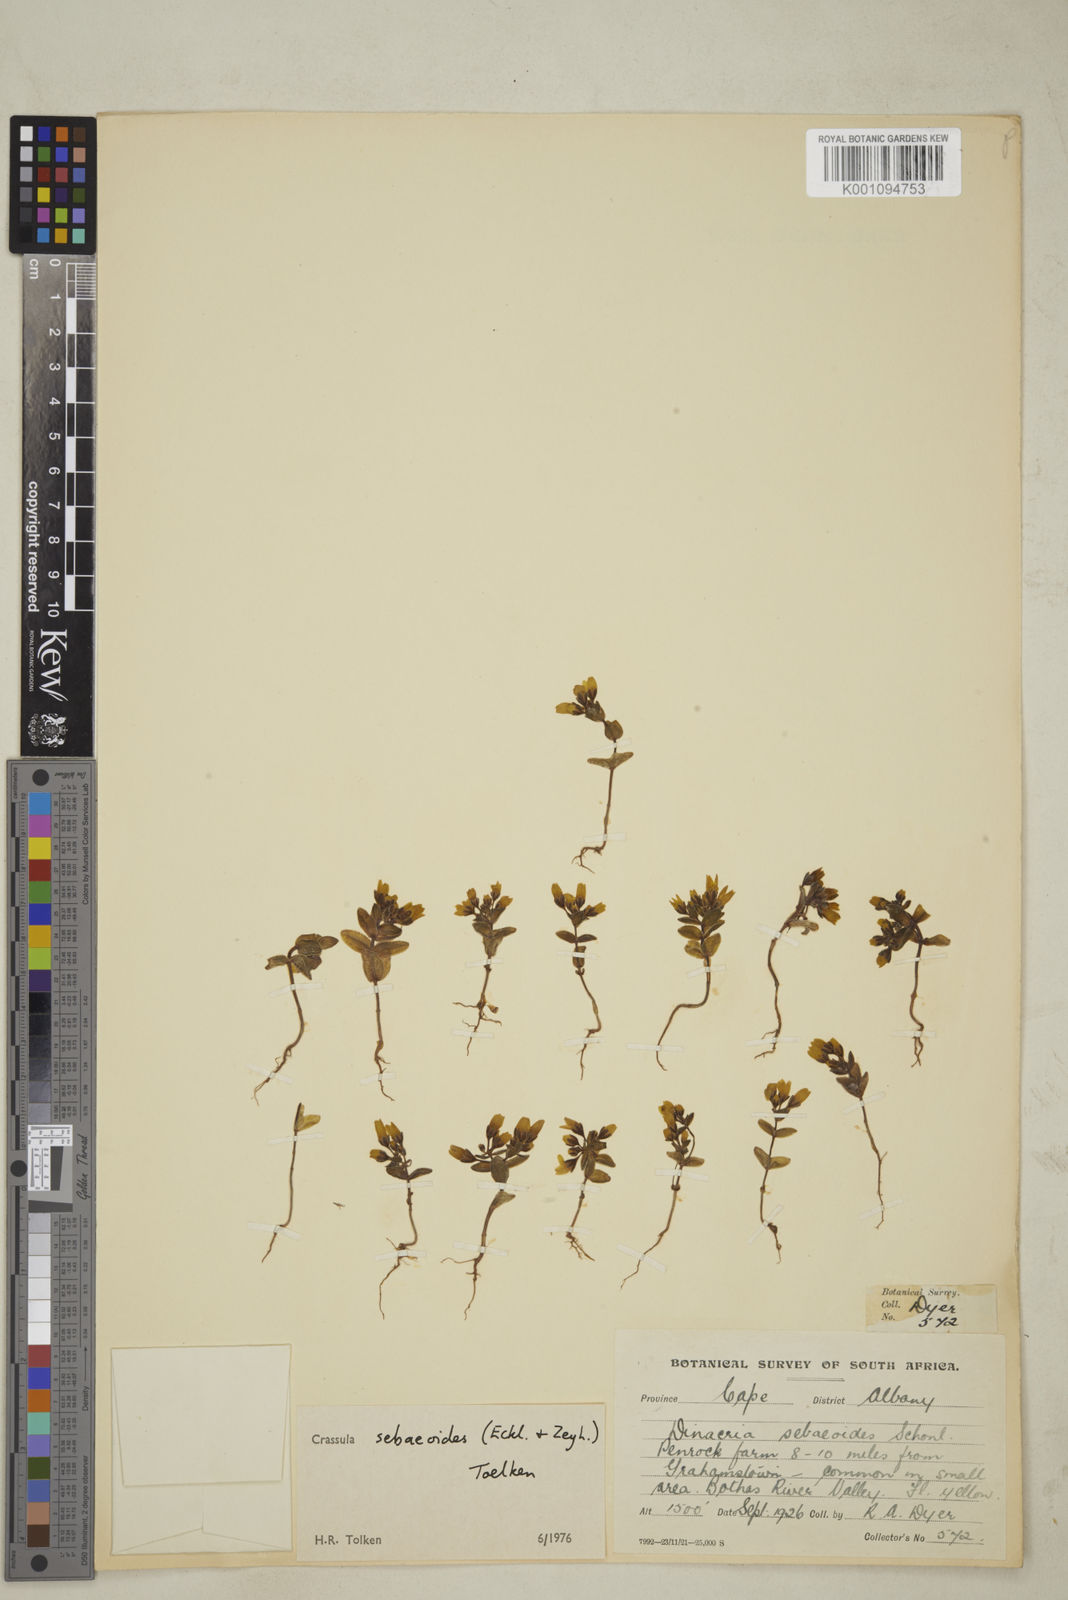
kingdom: Plantae
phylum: Tracheophyta
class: Magnoliopsida
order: Saxifragales
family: Crassulaceae
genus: Crassula
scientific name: Crassula sebaeoides
